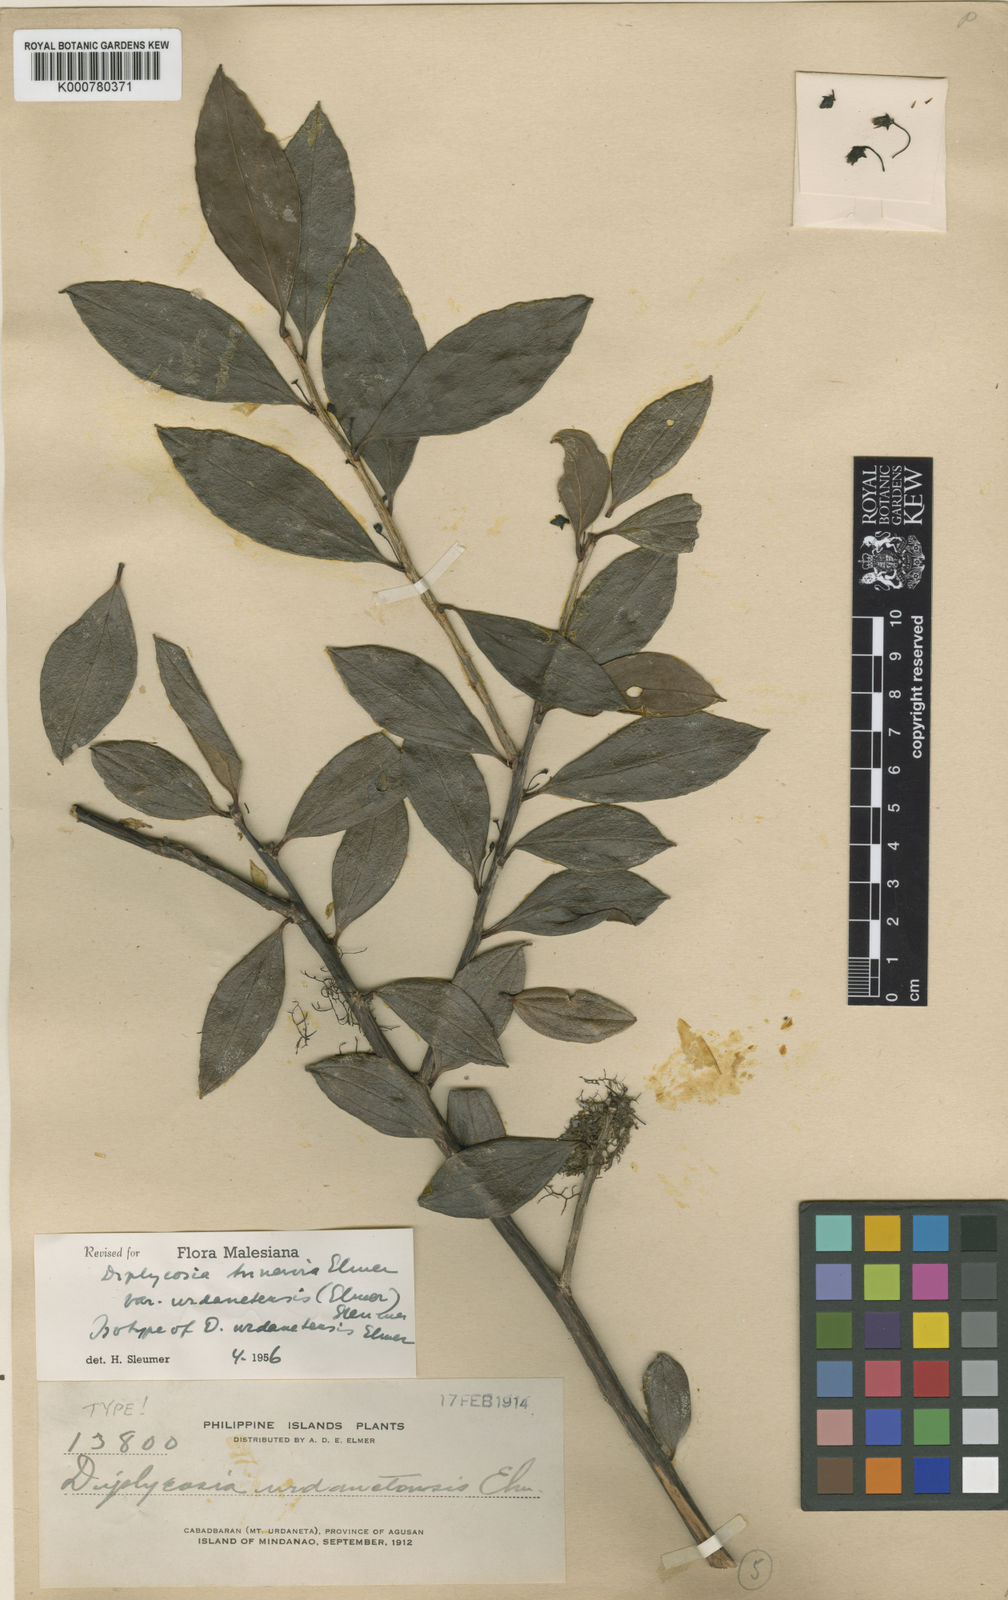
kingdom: Plantae
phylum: Tracheophyta
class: Magnoliopsida
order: Ericales
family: Ericaceae
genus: Gaultheria
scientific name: Gaultheria trinervia
